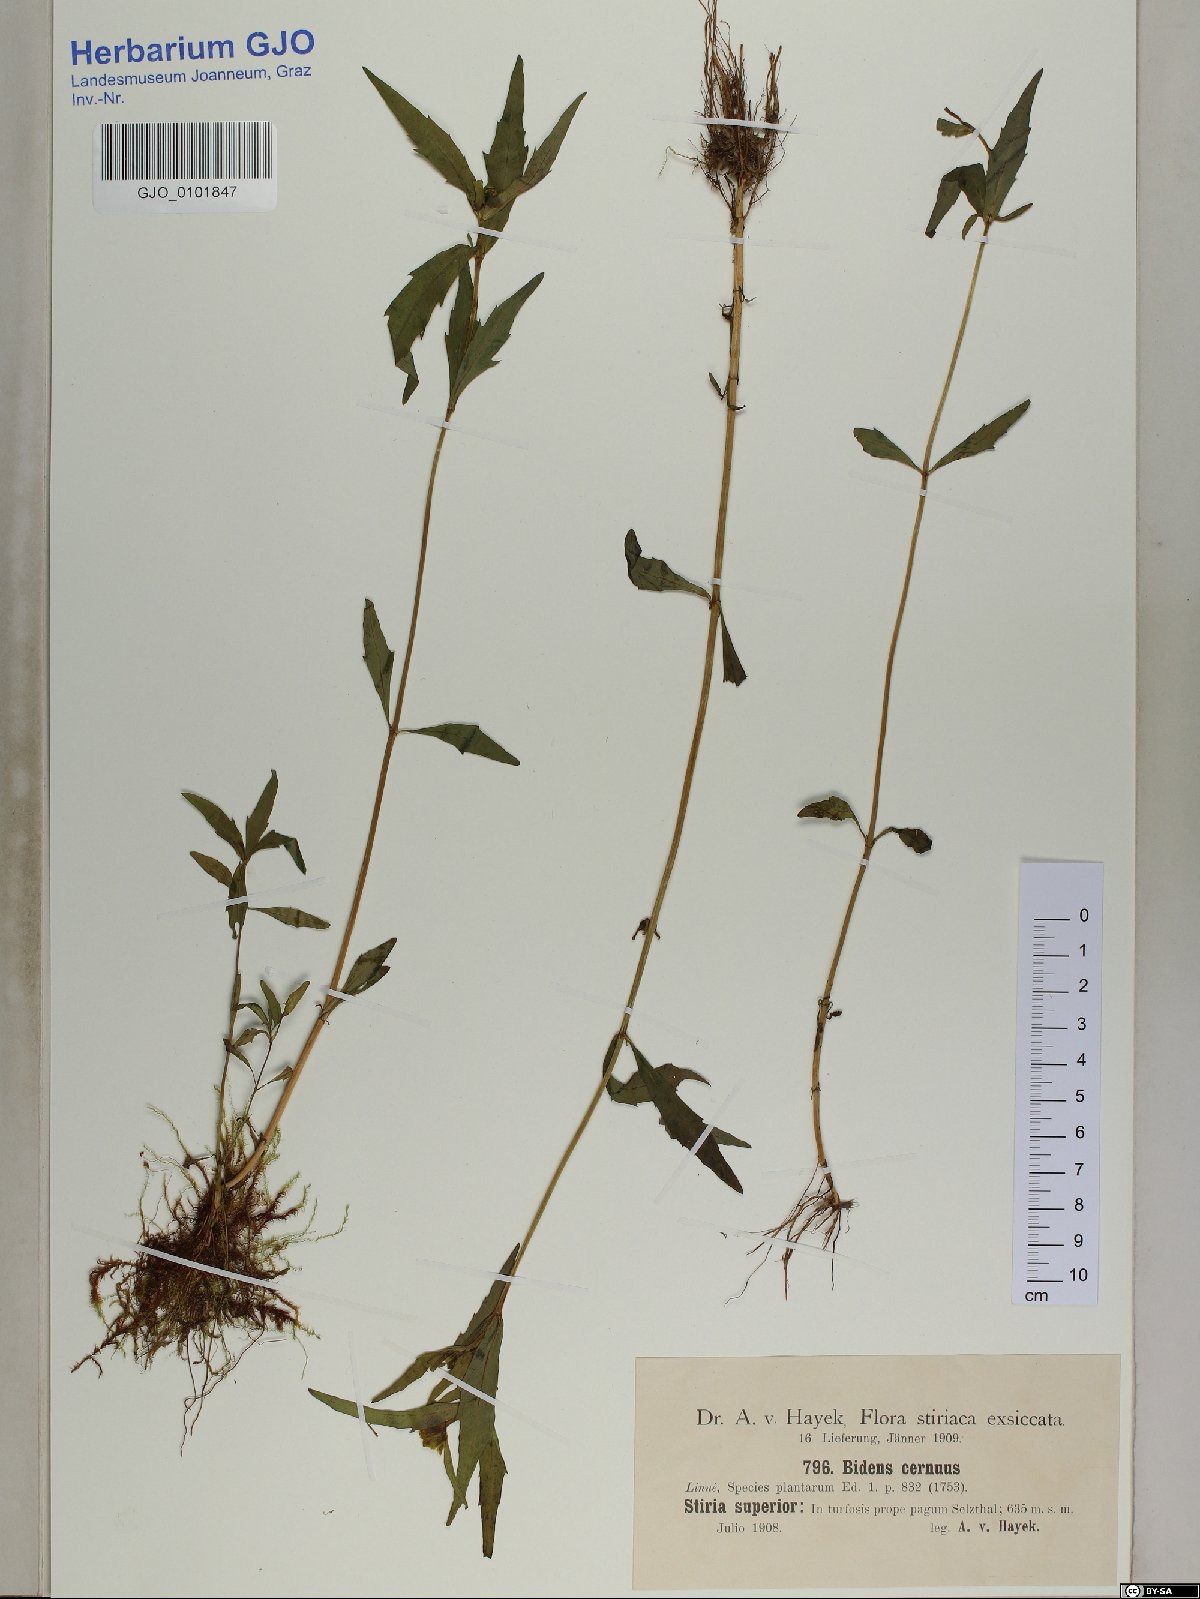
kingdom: Plantae
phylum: Tracheophyta
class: Magnoliopsida
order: Asterales
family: Asteraceae
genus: Bidens
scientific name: Bidens cernua
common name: Nodding bur-marigold
